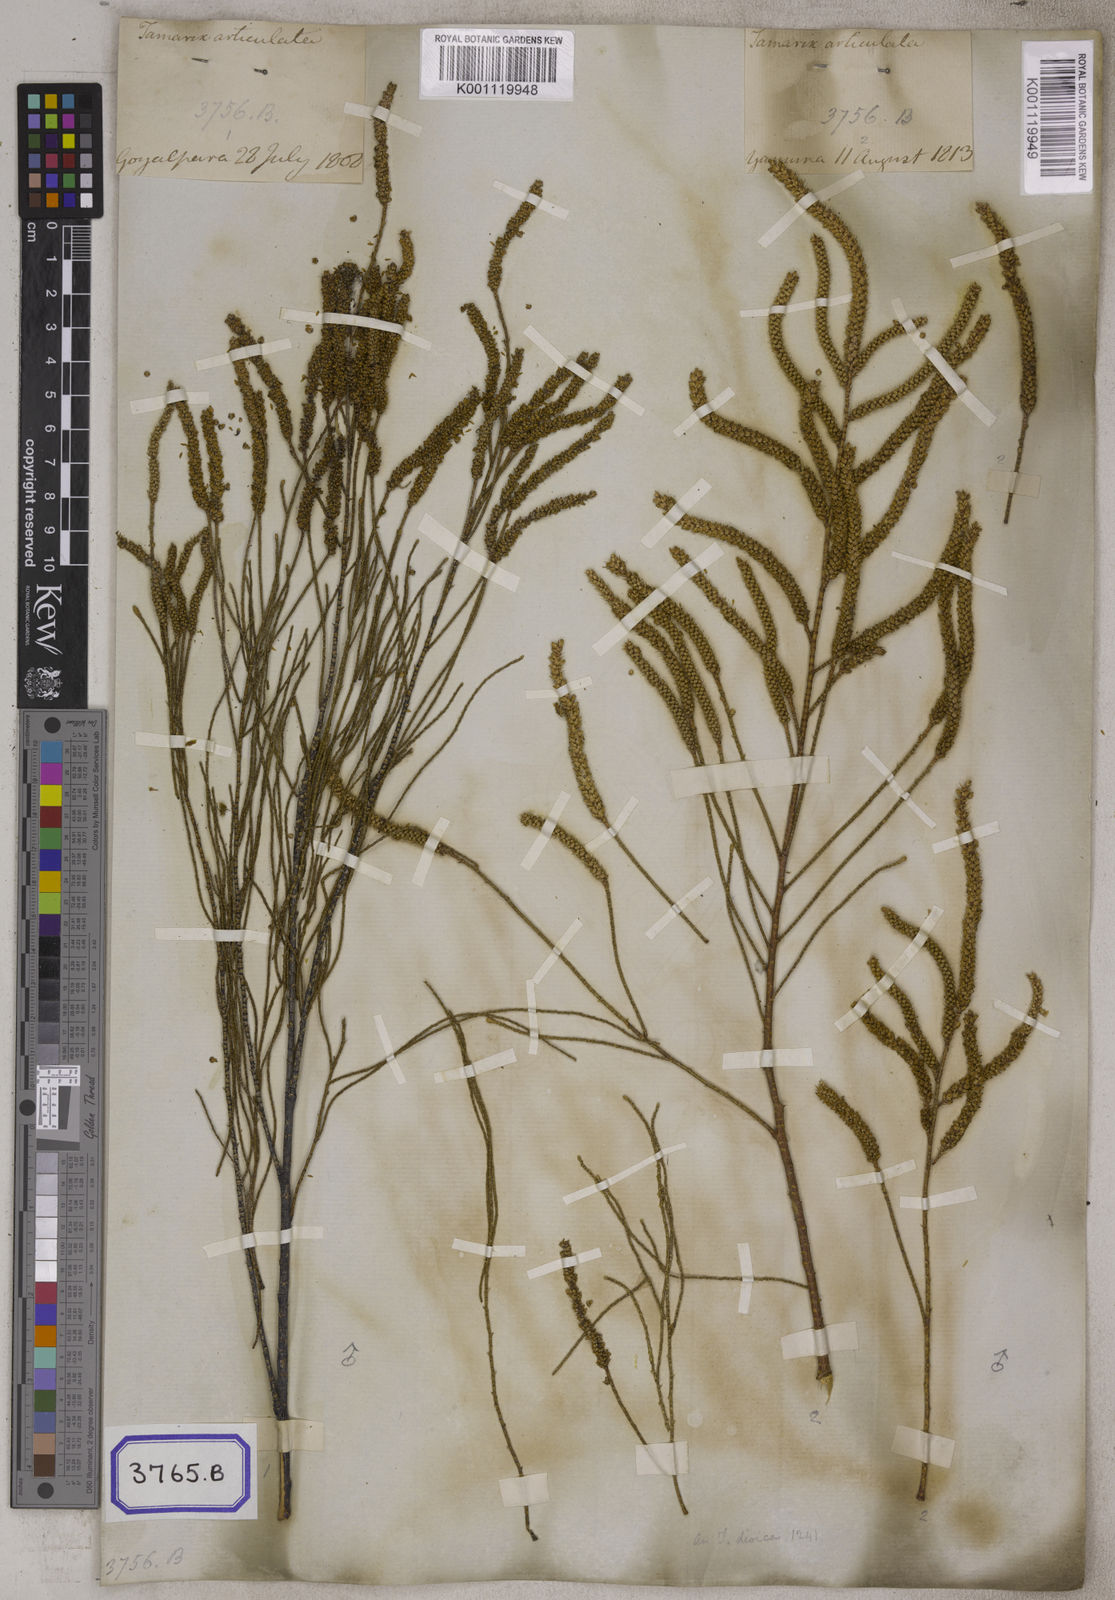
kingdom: Plantae
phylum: Tracheophyta
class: Magnoliopsida
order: Caryophyllales
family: Tamaricaceae
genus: Tamarix
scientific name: Tamarix aphylla
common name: Athel tamarisk
